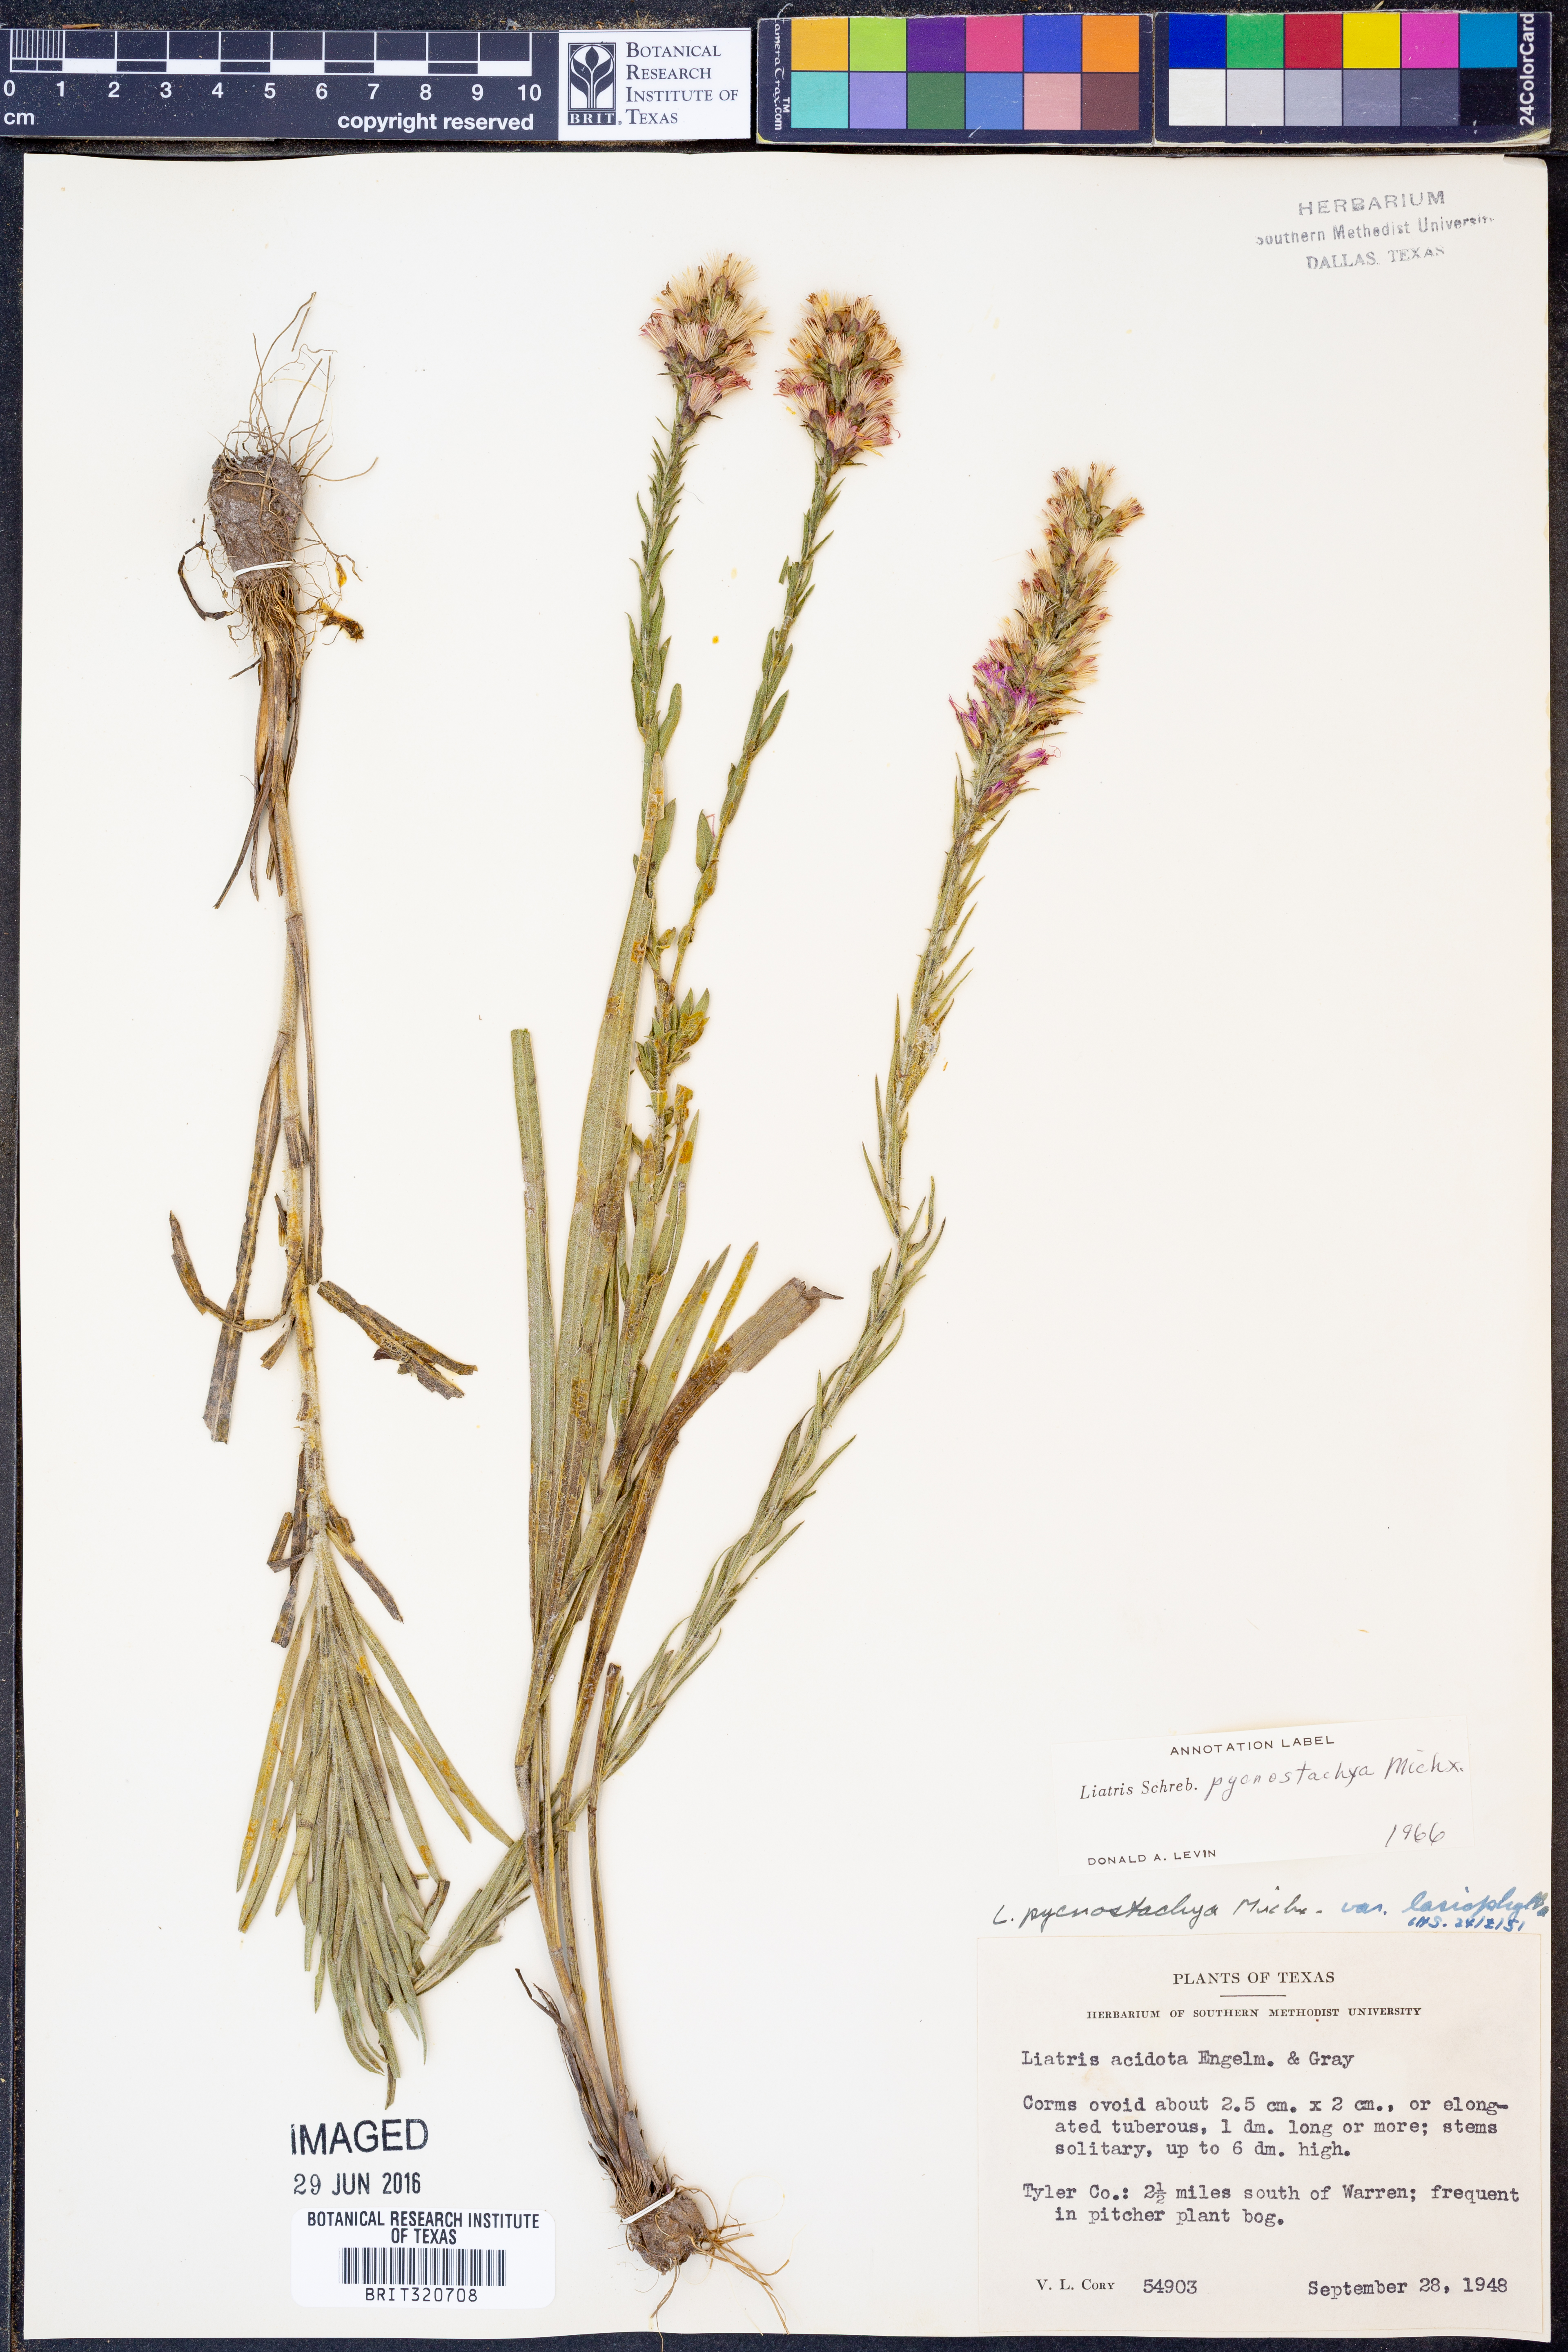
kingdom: Plantae
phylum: Tracheophyta
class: Magnoliopsida
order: Asterales
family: Asteraceae
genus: Liatris
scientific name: Liatris pycnostachya
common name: Cattail gayfeather
